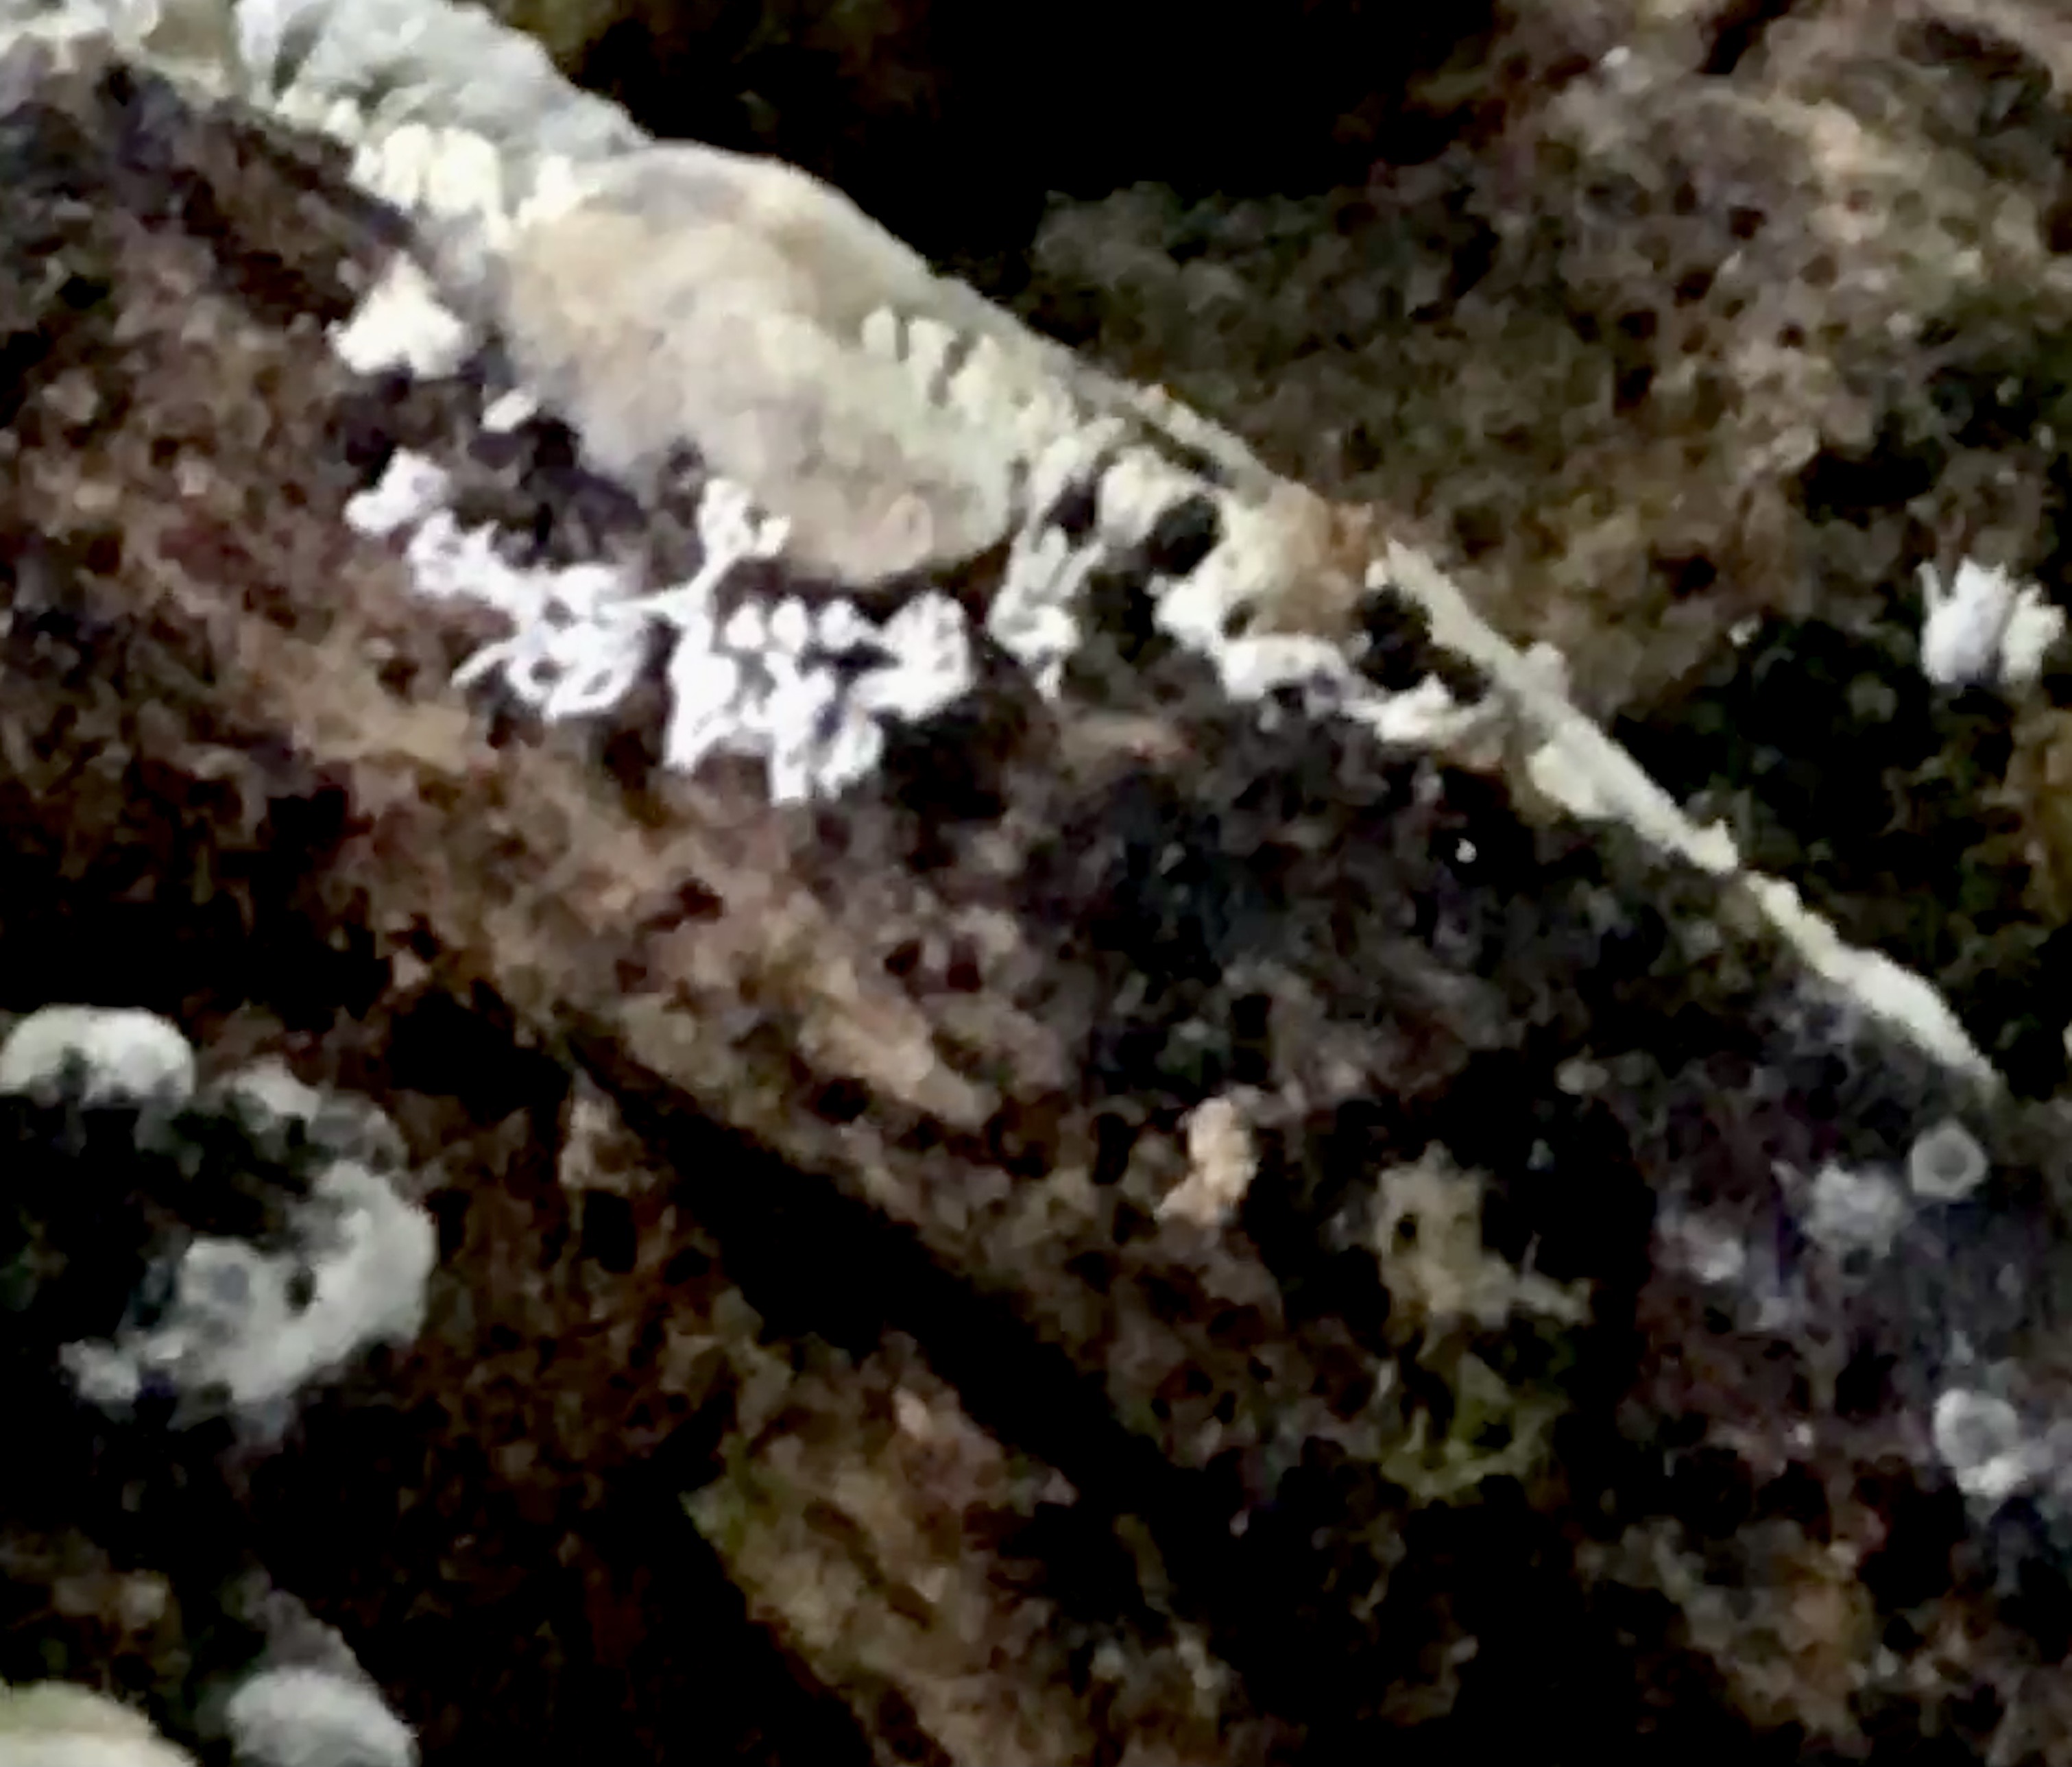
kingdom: Protozoa
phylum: Mycetozoa
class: Protosteliomycetes
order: Ceratiomyxales
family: Ceratiomyxaceae
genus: Ceratiomyxa
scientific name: Ceratiomyxa fruticulosa
